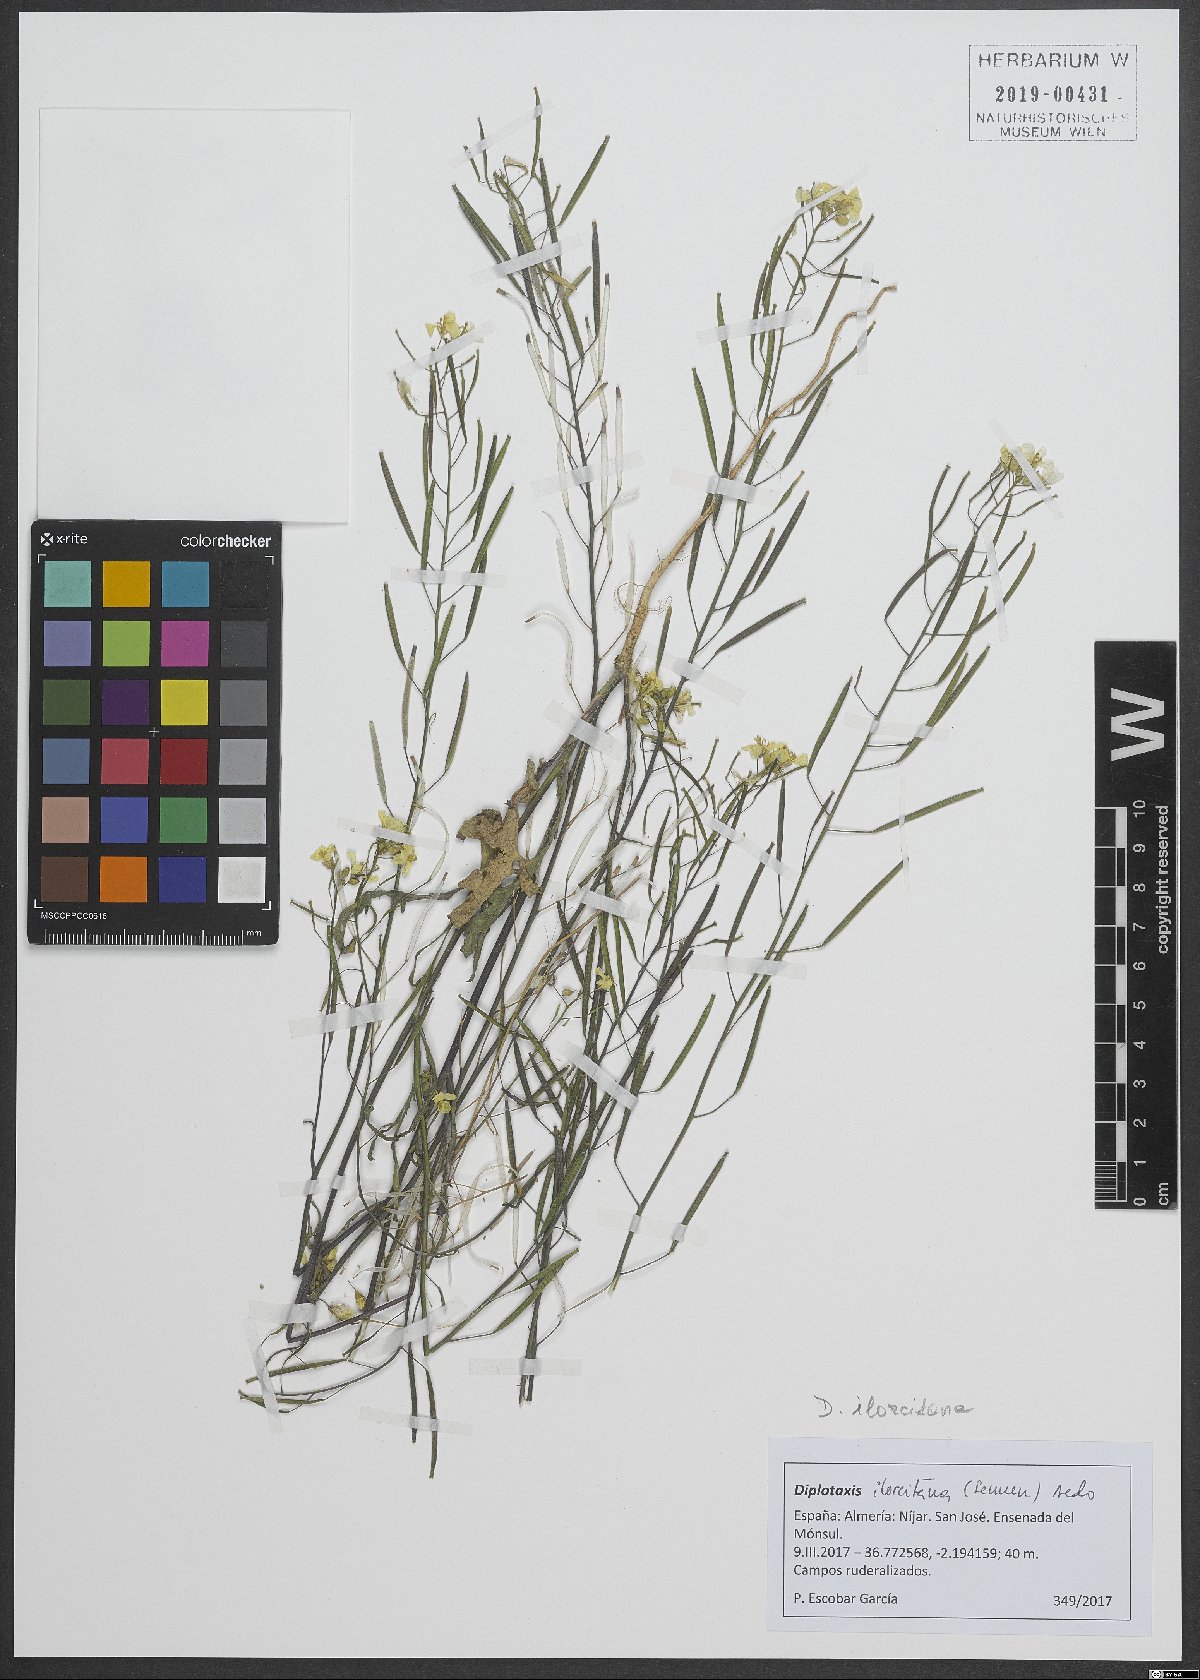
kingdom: Plantae
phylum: Tracheophyta
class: Magnoliopsida
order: Brassicales
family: Brassicaceae
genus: Diplotaxis
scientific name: Diplotaxis ilorcitana
